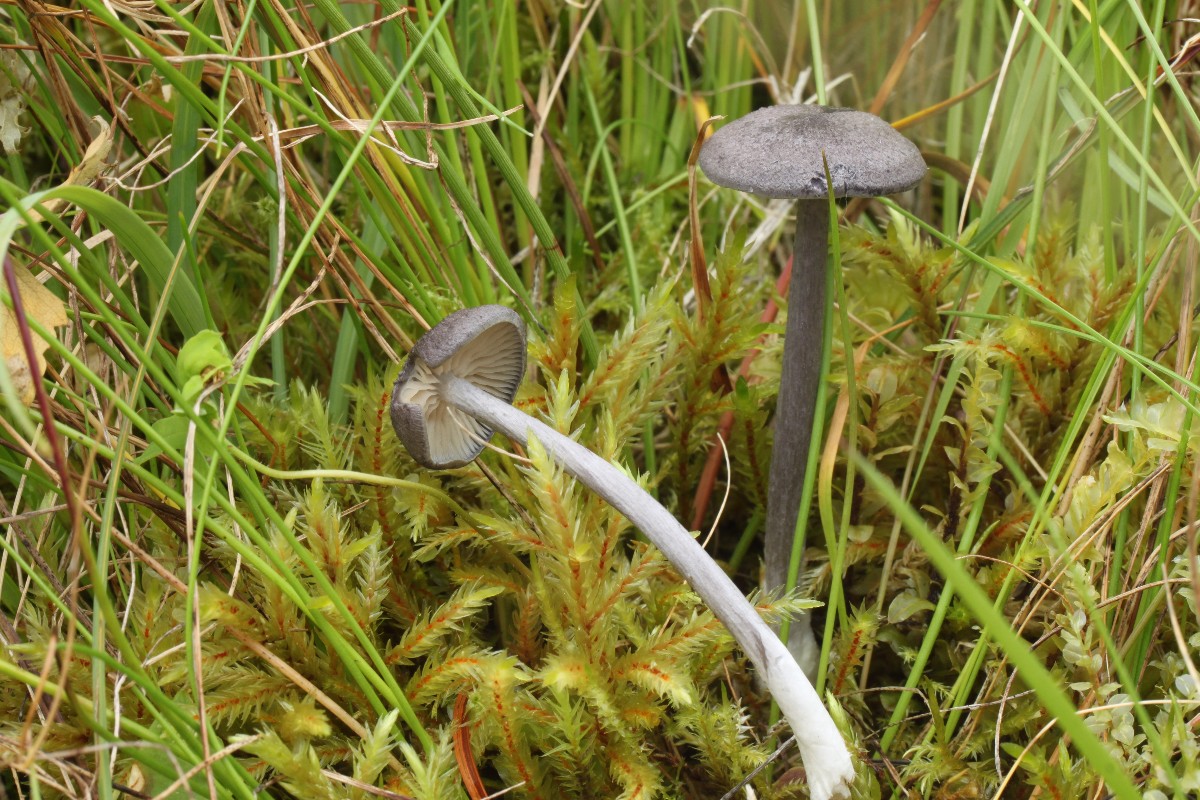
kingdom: Fungi
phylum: Basidiomycota
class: Agaricomycetes
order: Agaricales
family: Entolomataceae
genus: Entoloma
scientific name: Entoloma mougeotii
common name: violetgrå rødblad
